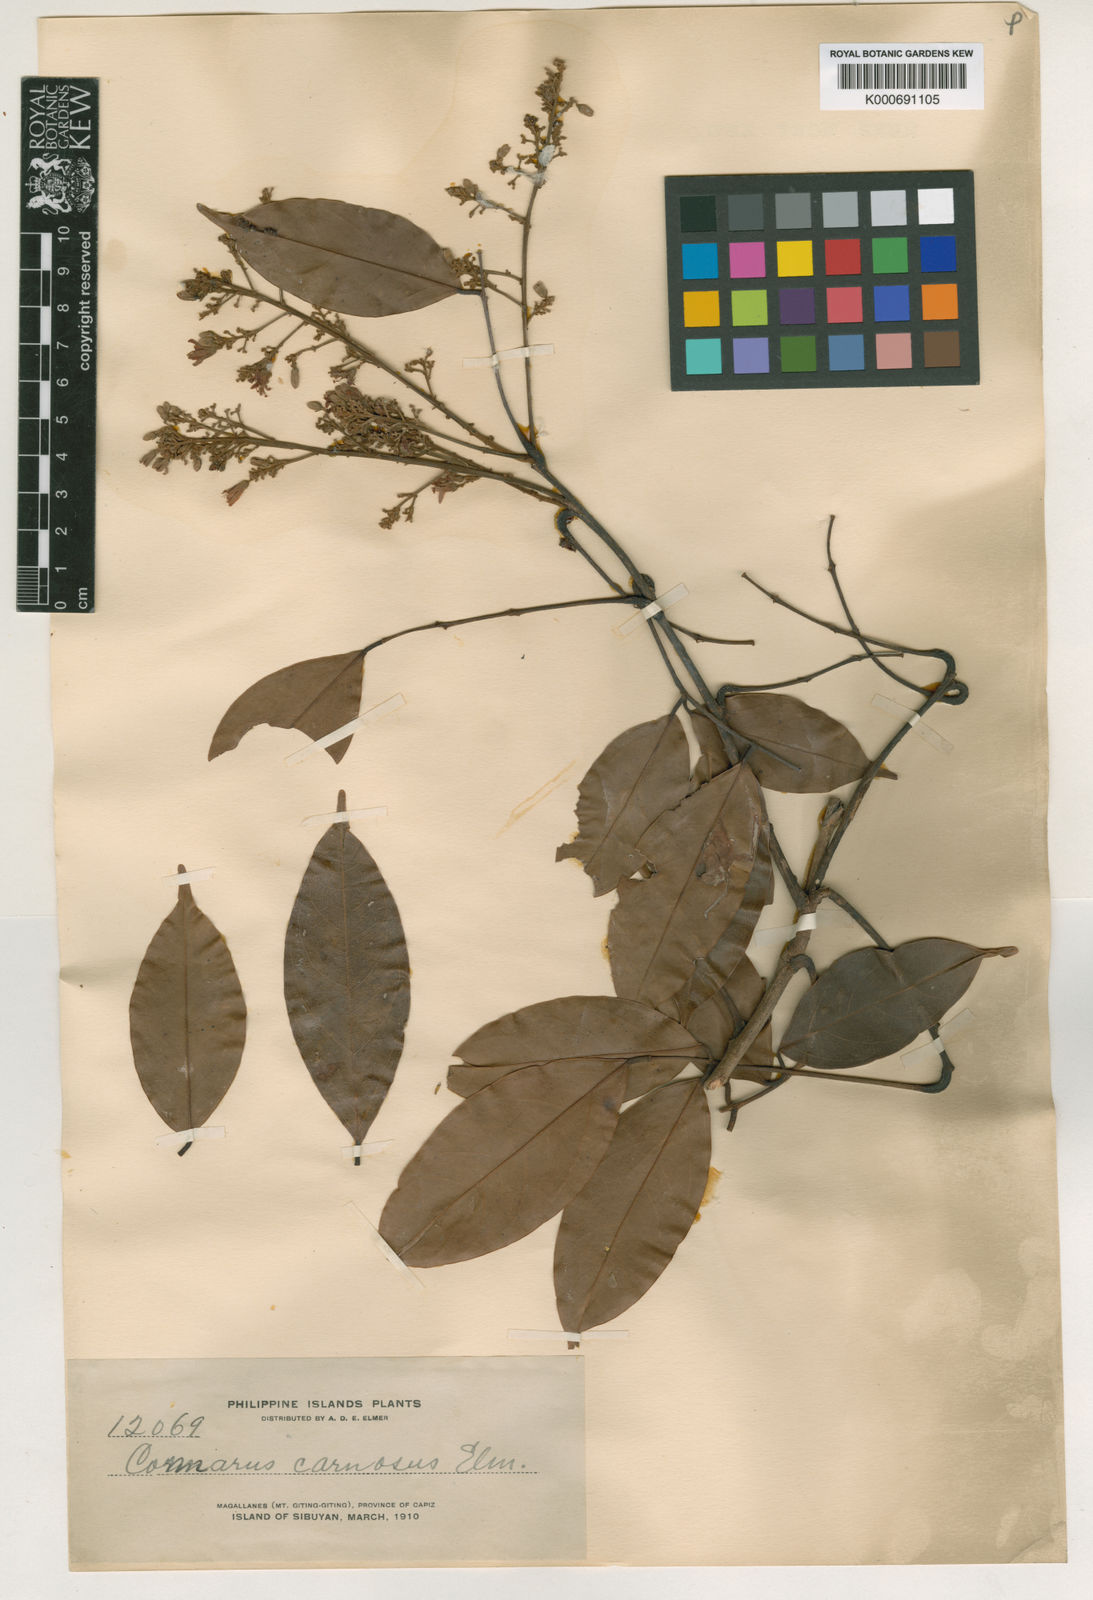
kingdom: Plantae
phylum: Tracheophyta
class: Magnoliopsida
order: Oxalidales
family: Connaraceae
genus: Connarus
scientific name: Connarus semidecandrus
